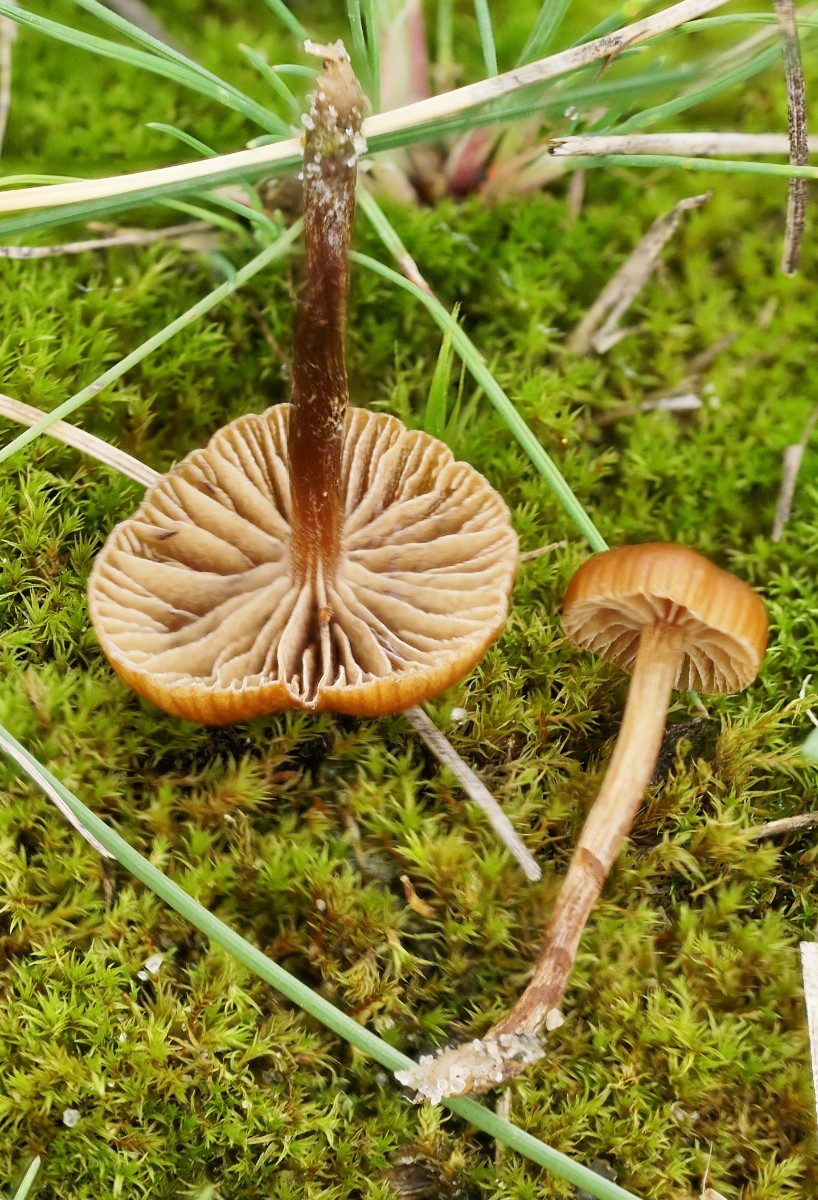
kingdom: Fungi
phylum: Basidiomycota
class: Agaricomycetes
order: Agaricales
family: Strophariaceae
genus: Deconica
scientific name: Deconica montana
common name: rødbrun stråhat
